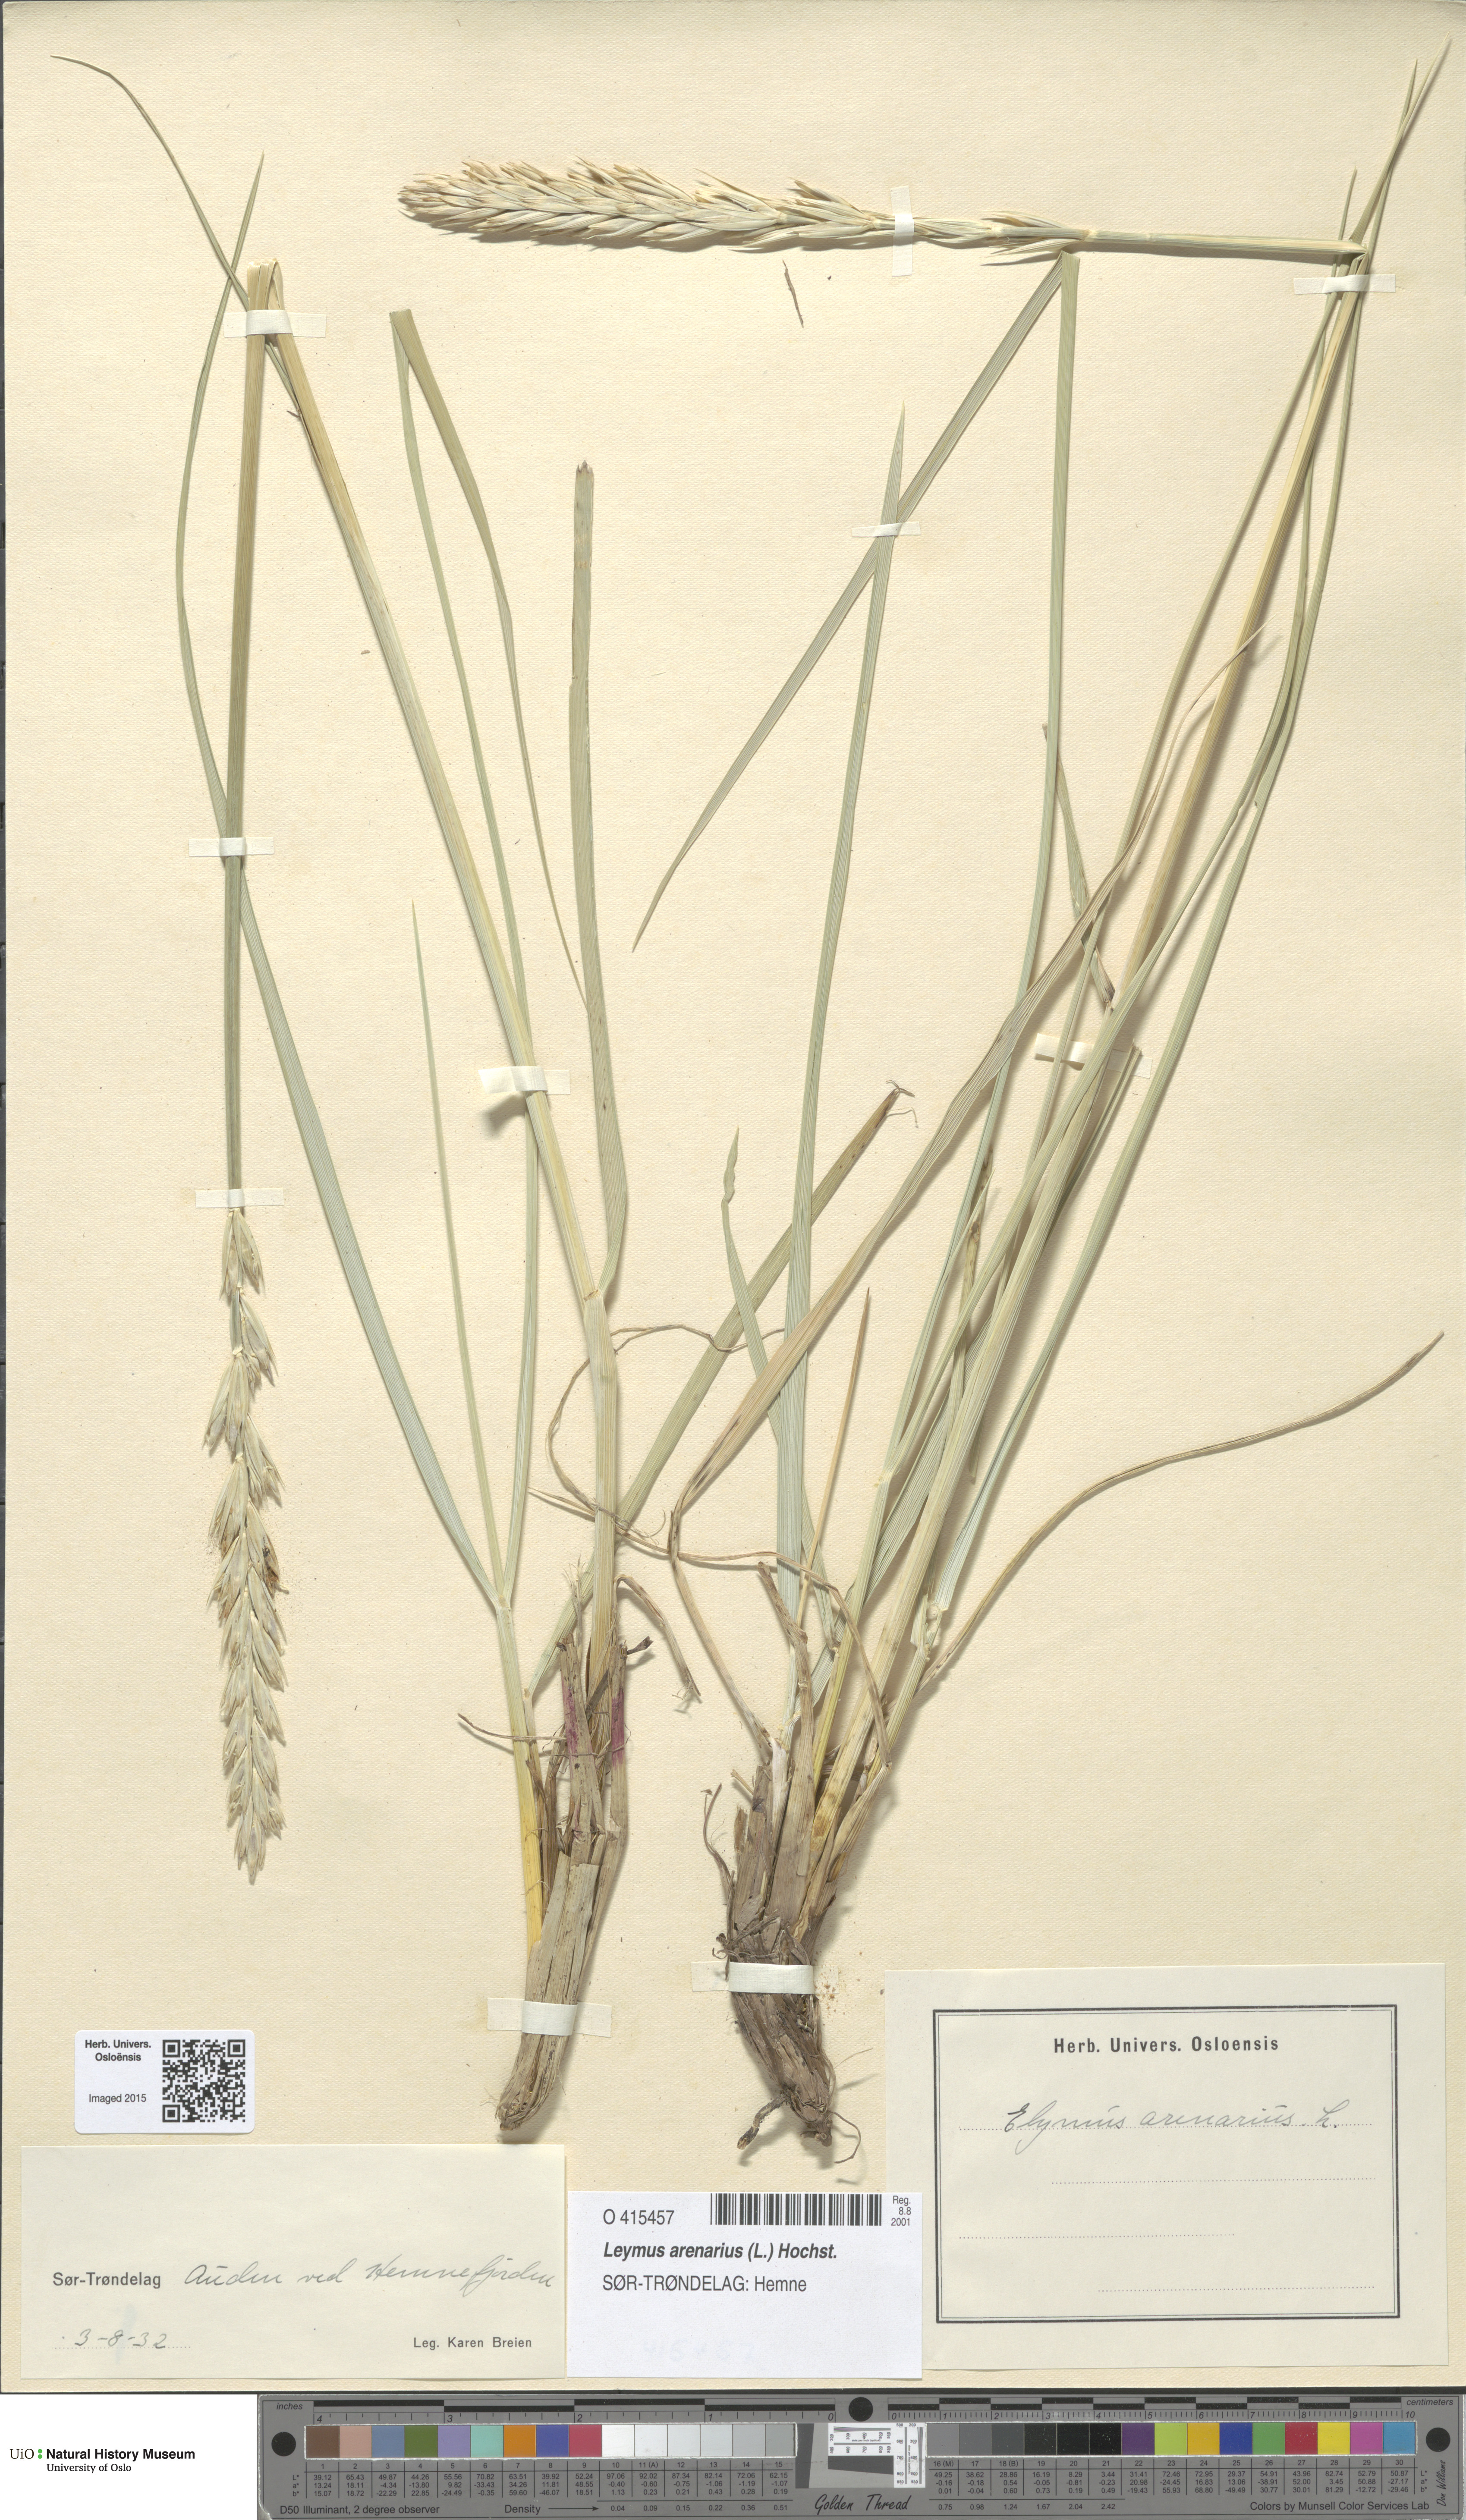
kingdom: Plantae
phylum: Tracheophyta
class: Liliopsida
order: Poales
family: Poaceae
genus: Leymus
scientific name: Leymus arenarius
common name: Lyme-grass
